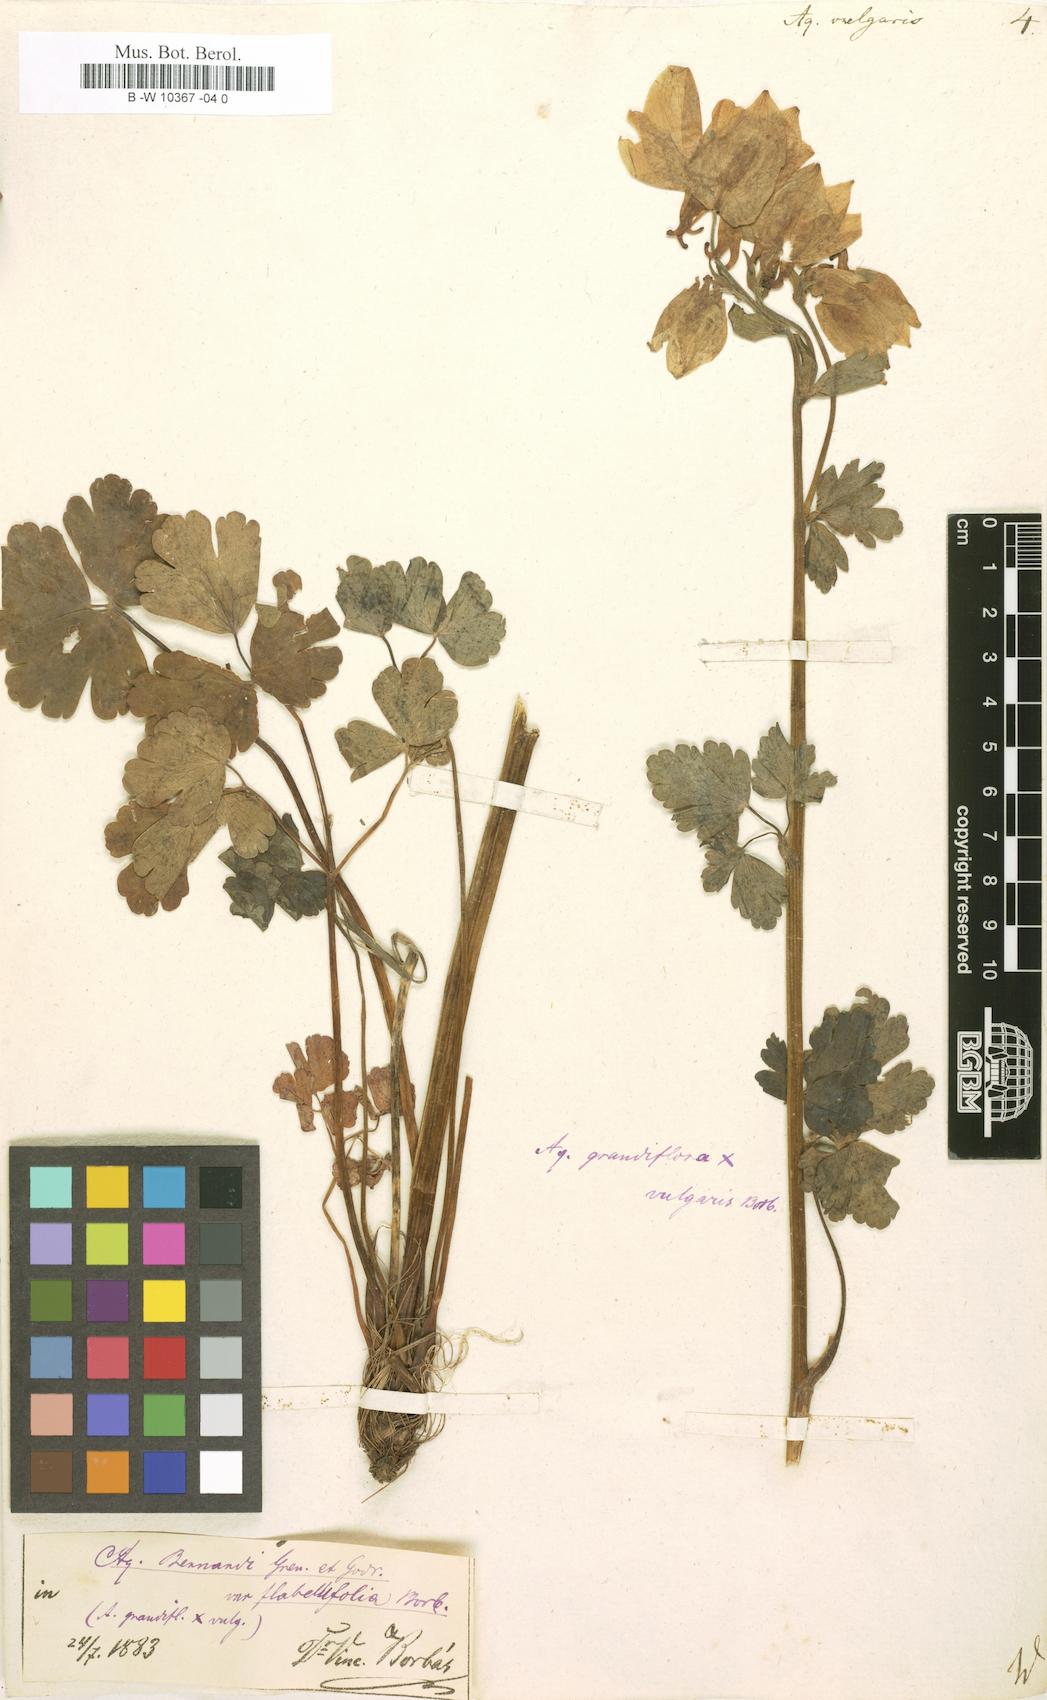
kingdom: Plantae
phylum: Tracheophyta
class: Magnoliopsida
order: Ranunculales
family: Ranunculaceae
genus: Aquilegia
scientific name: Aquilegia vulgaris
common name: Columbine
